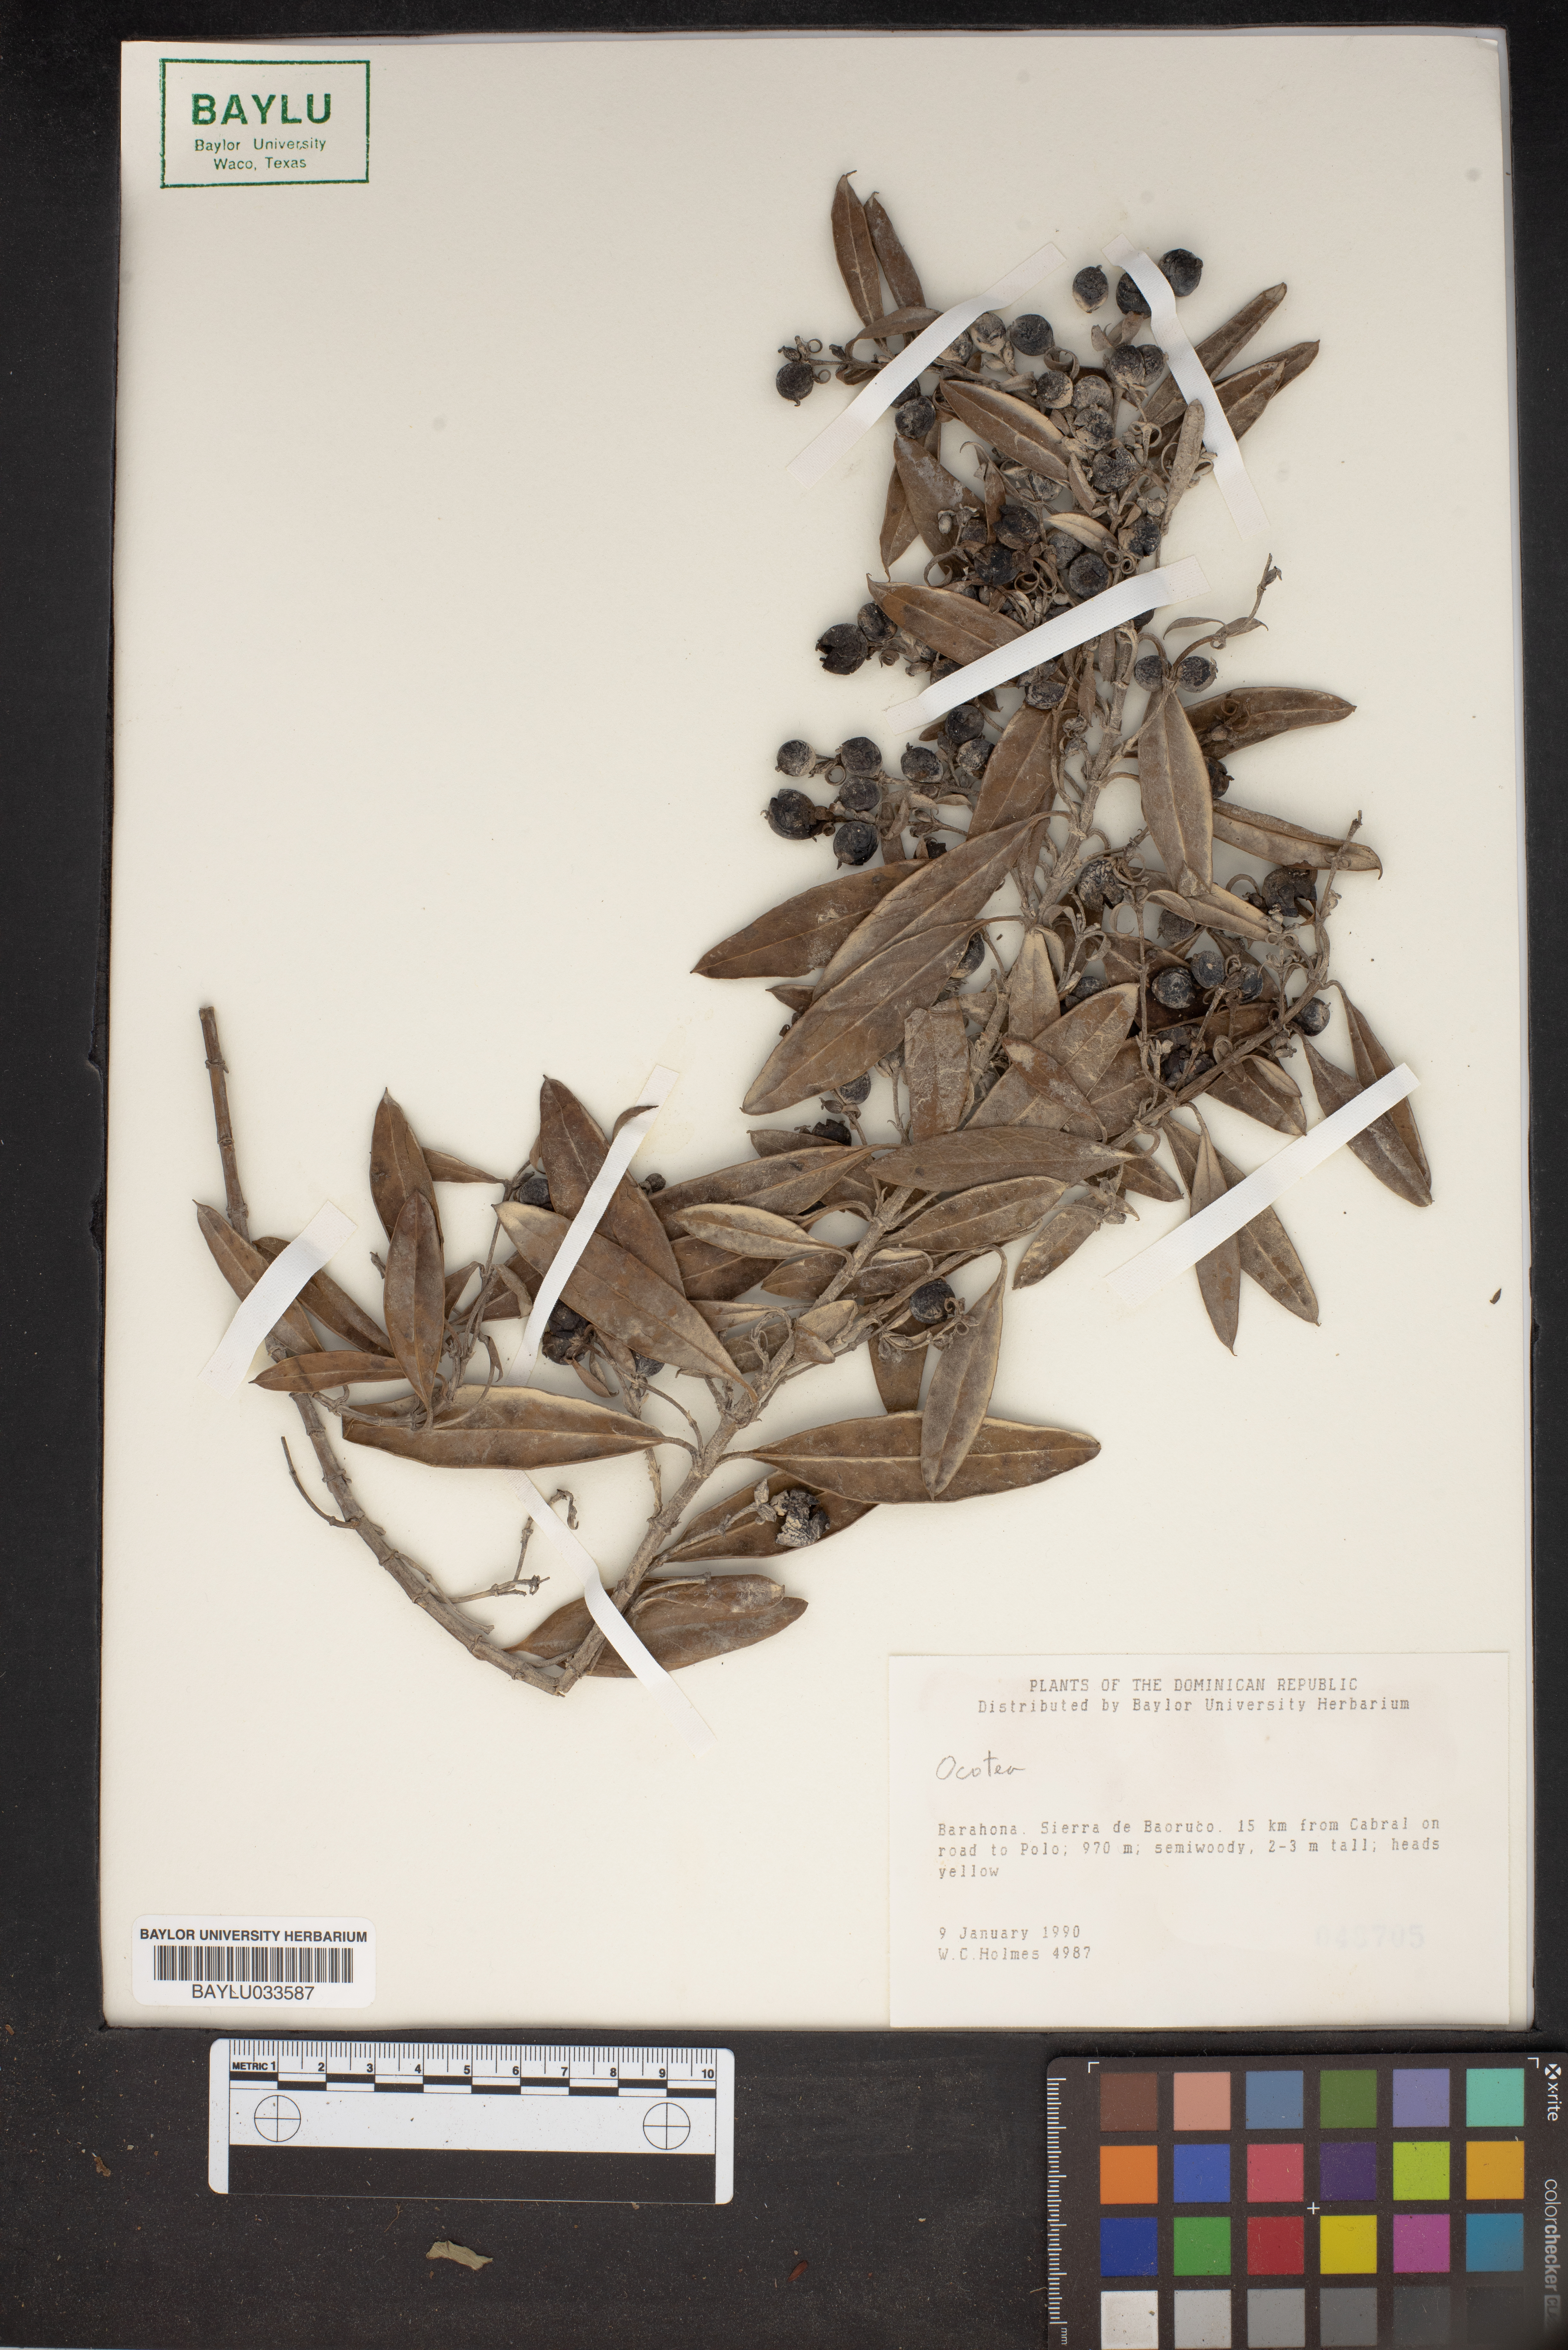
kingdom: Plantae
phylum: Tracheophyta
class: Magnoliopsida
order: Laurales
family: Lauraceae
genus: Ocotea
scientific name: Ocotea
